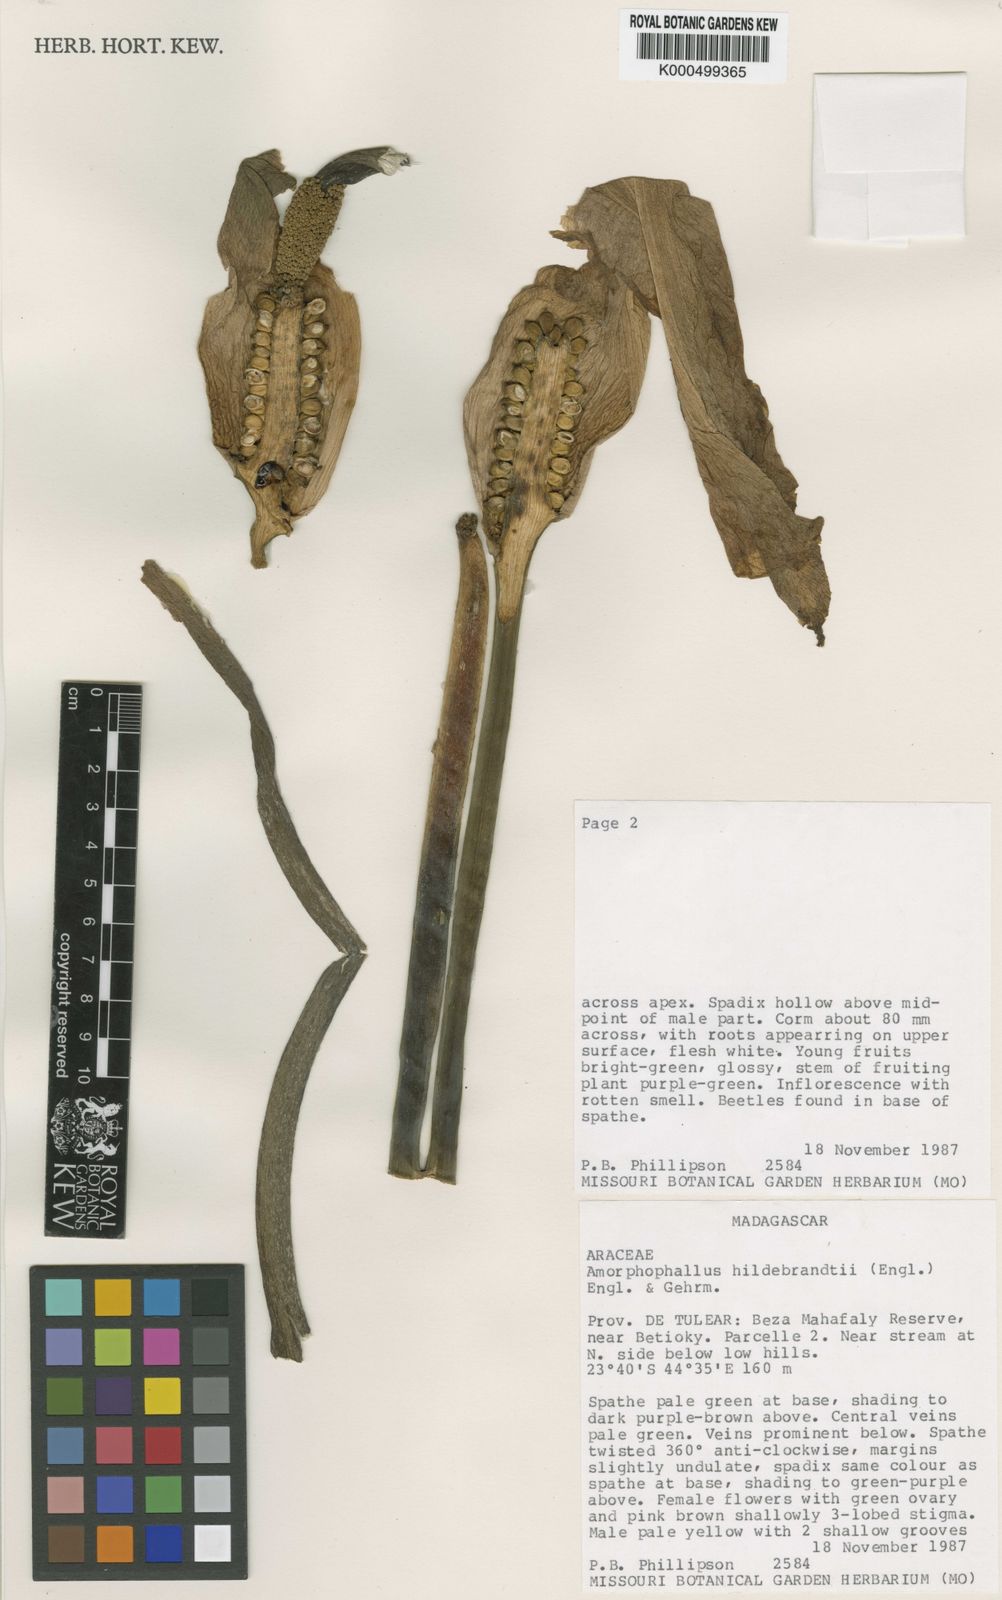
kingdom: Plantae
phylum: Tracheophyta
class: Liliopsida
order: Alismatales
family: Araceae
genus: Amorphophallus
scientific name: Amorphophallus hildebrandtii
